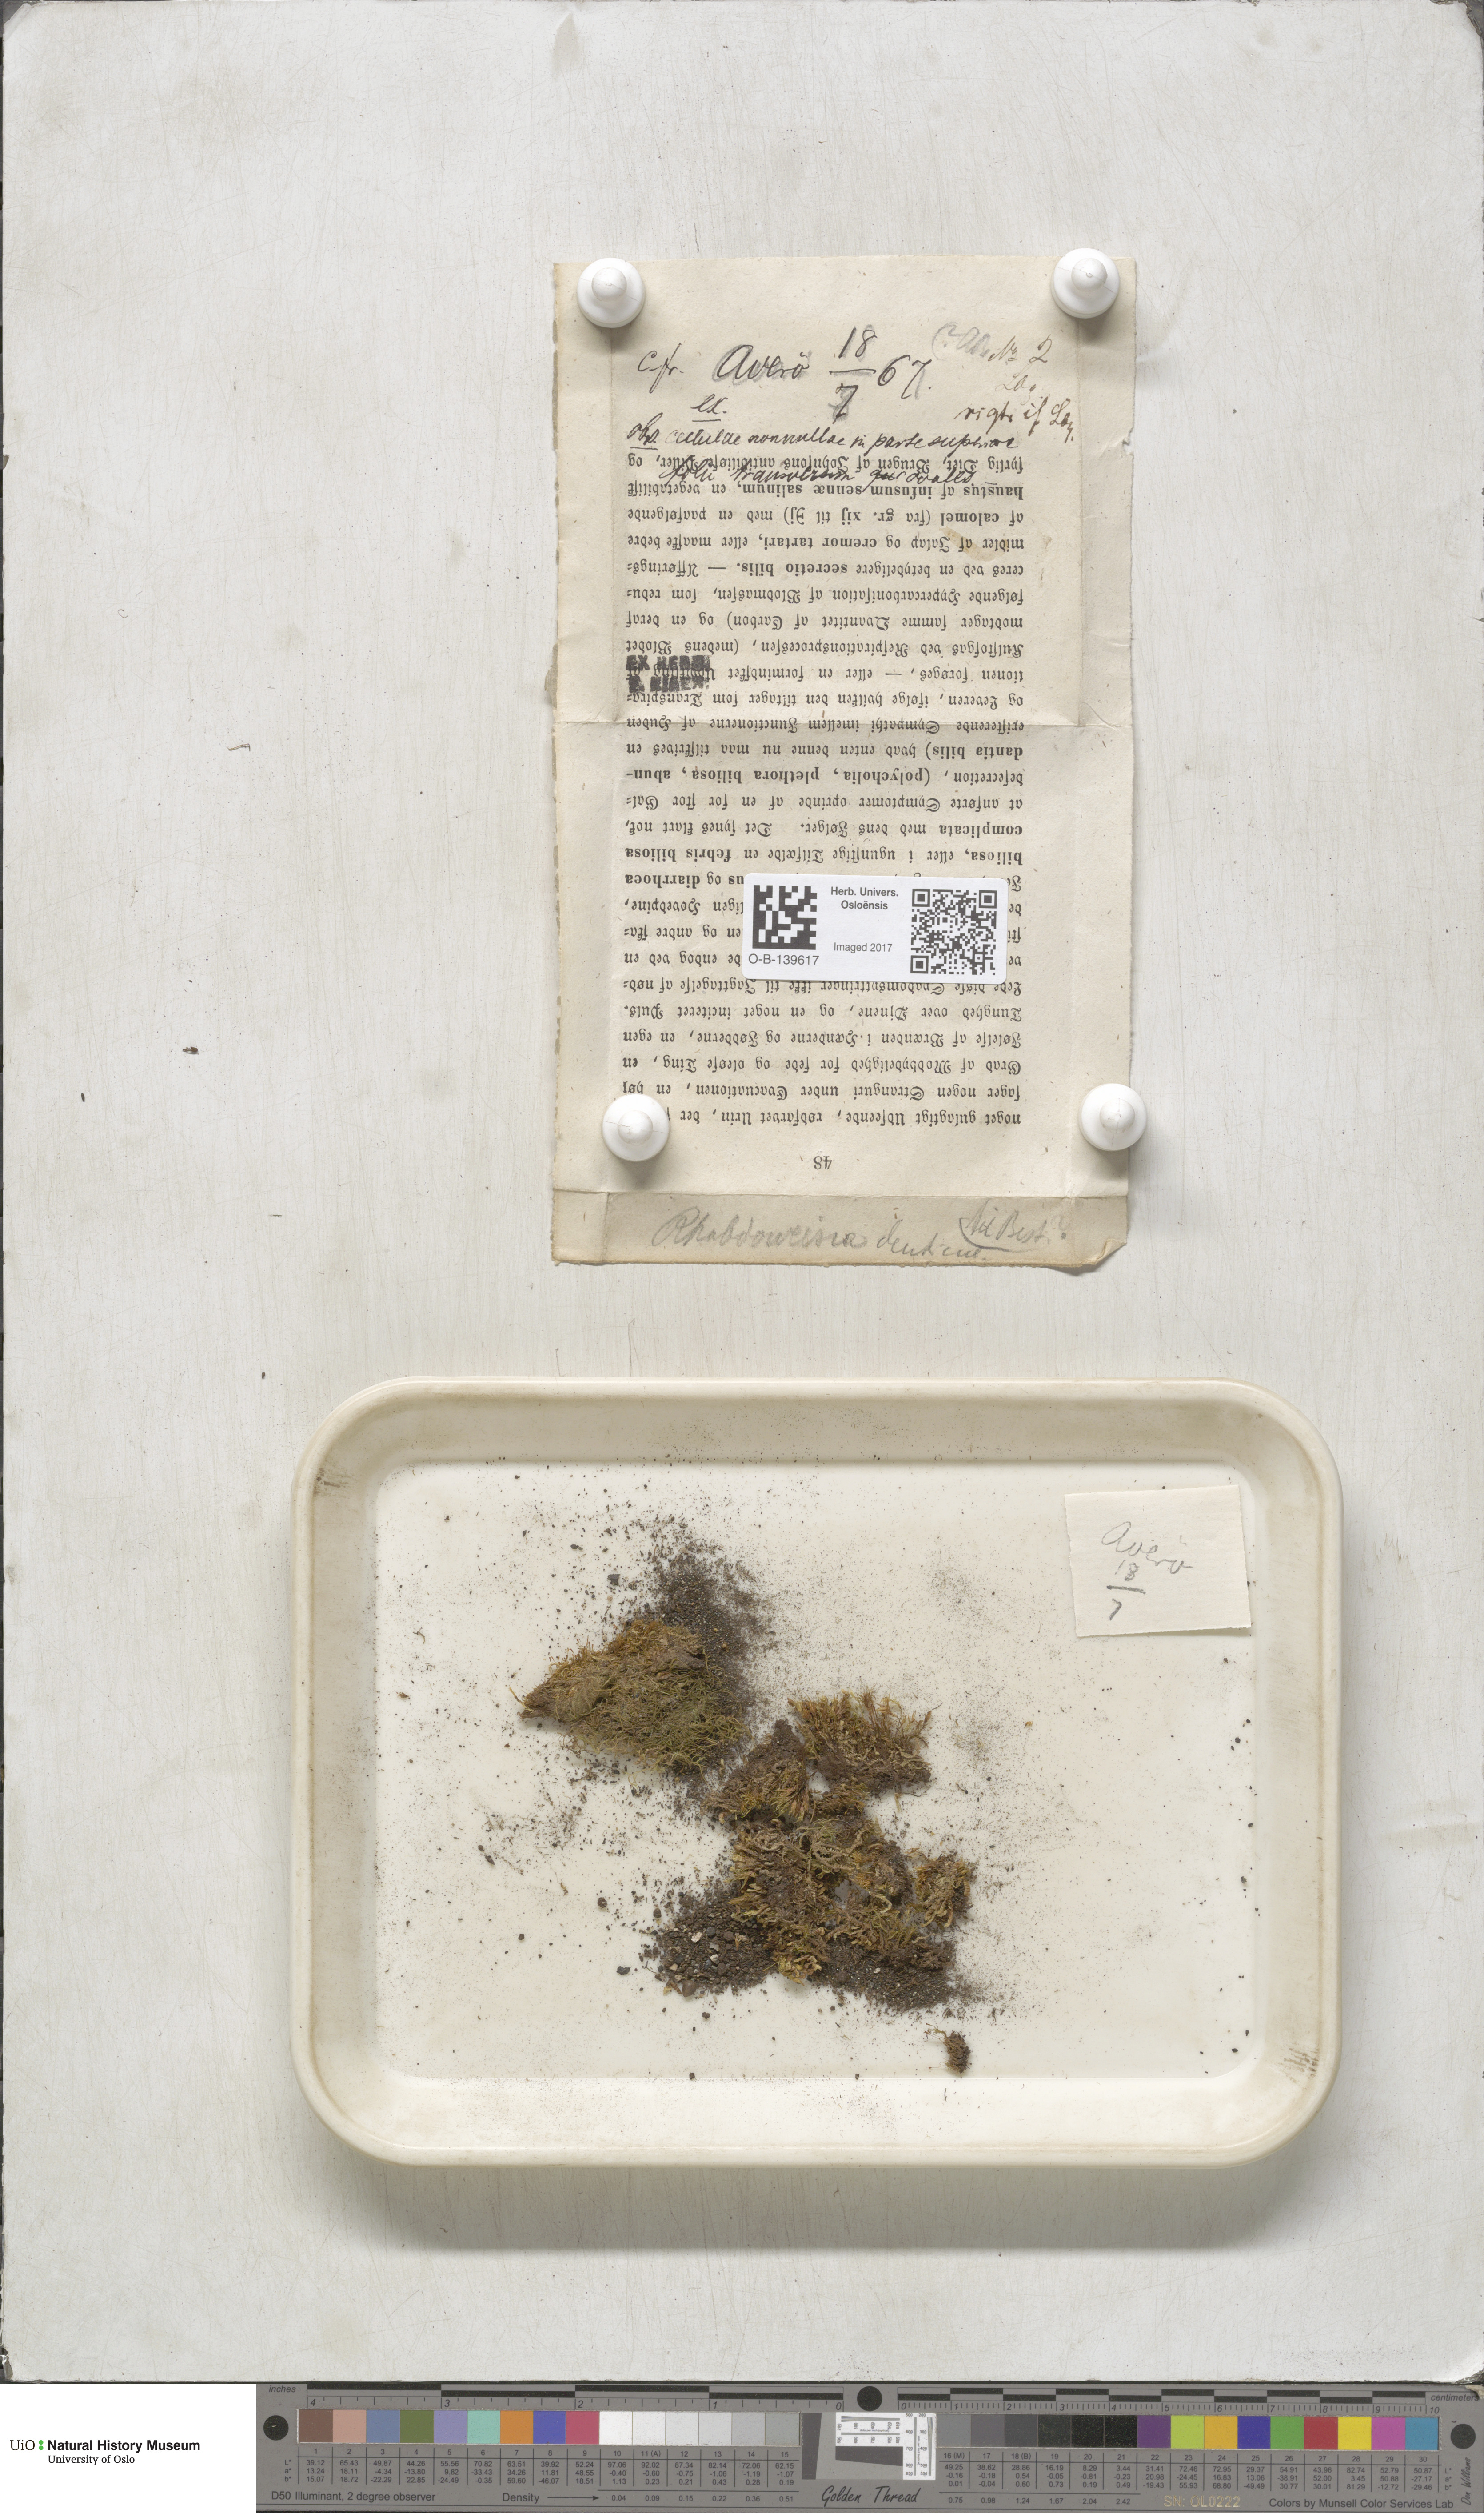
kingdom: Plantae
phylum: Bryophyta
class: Bryopsida
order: Dicranales
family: Rhabdoweisiaceae
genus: Rhabdoweisia
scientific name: Rhabdoweisia crispata
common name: Fine-toothed streak moss
